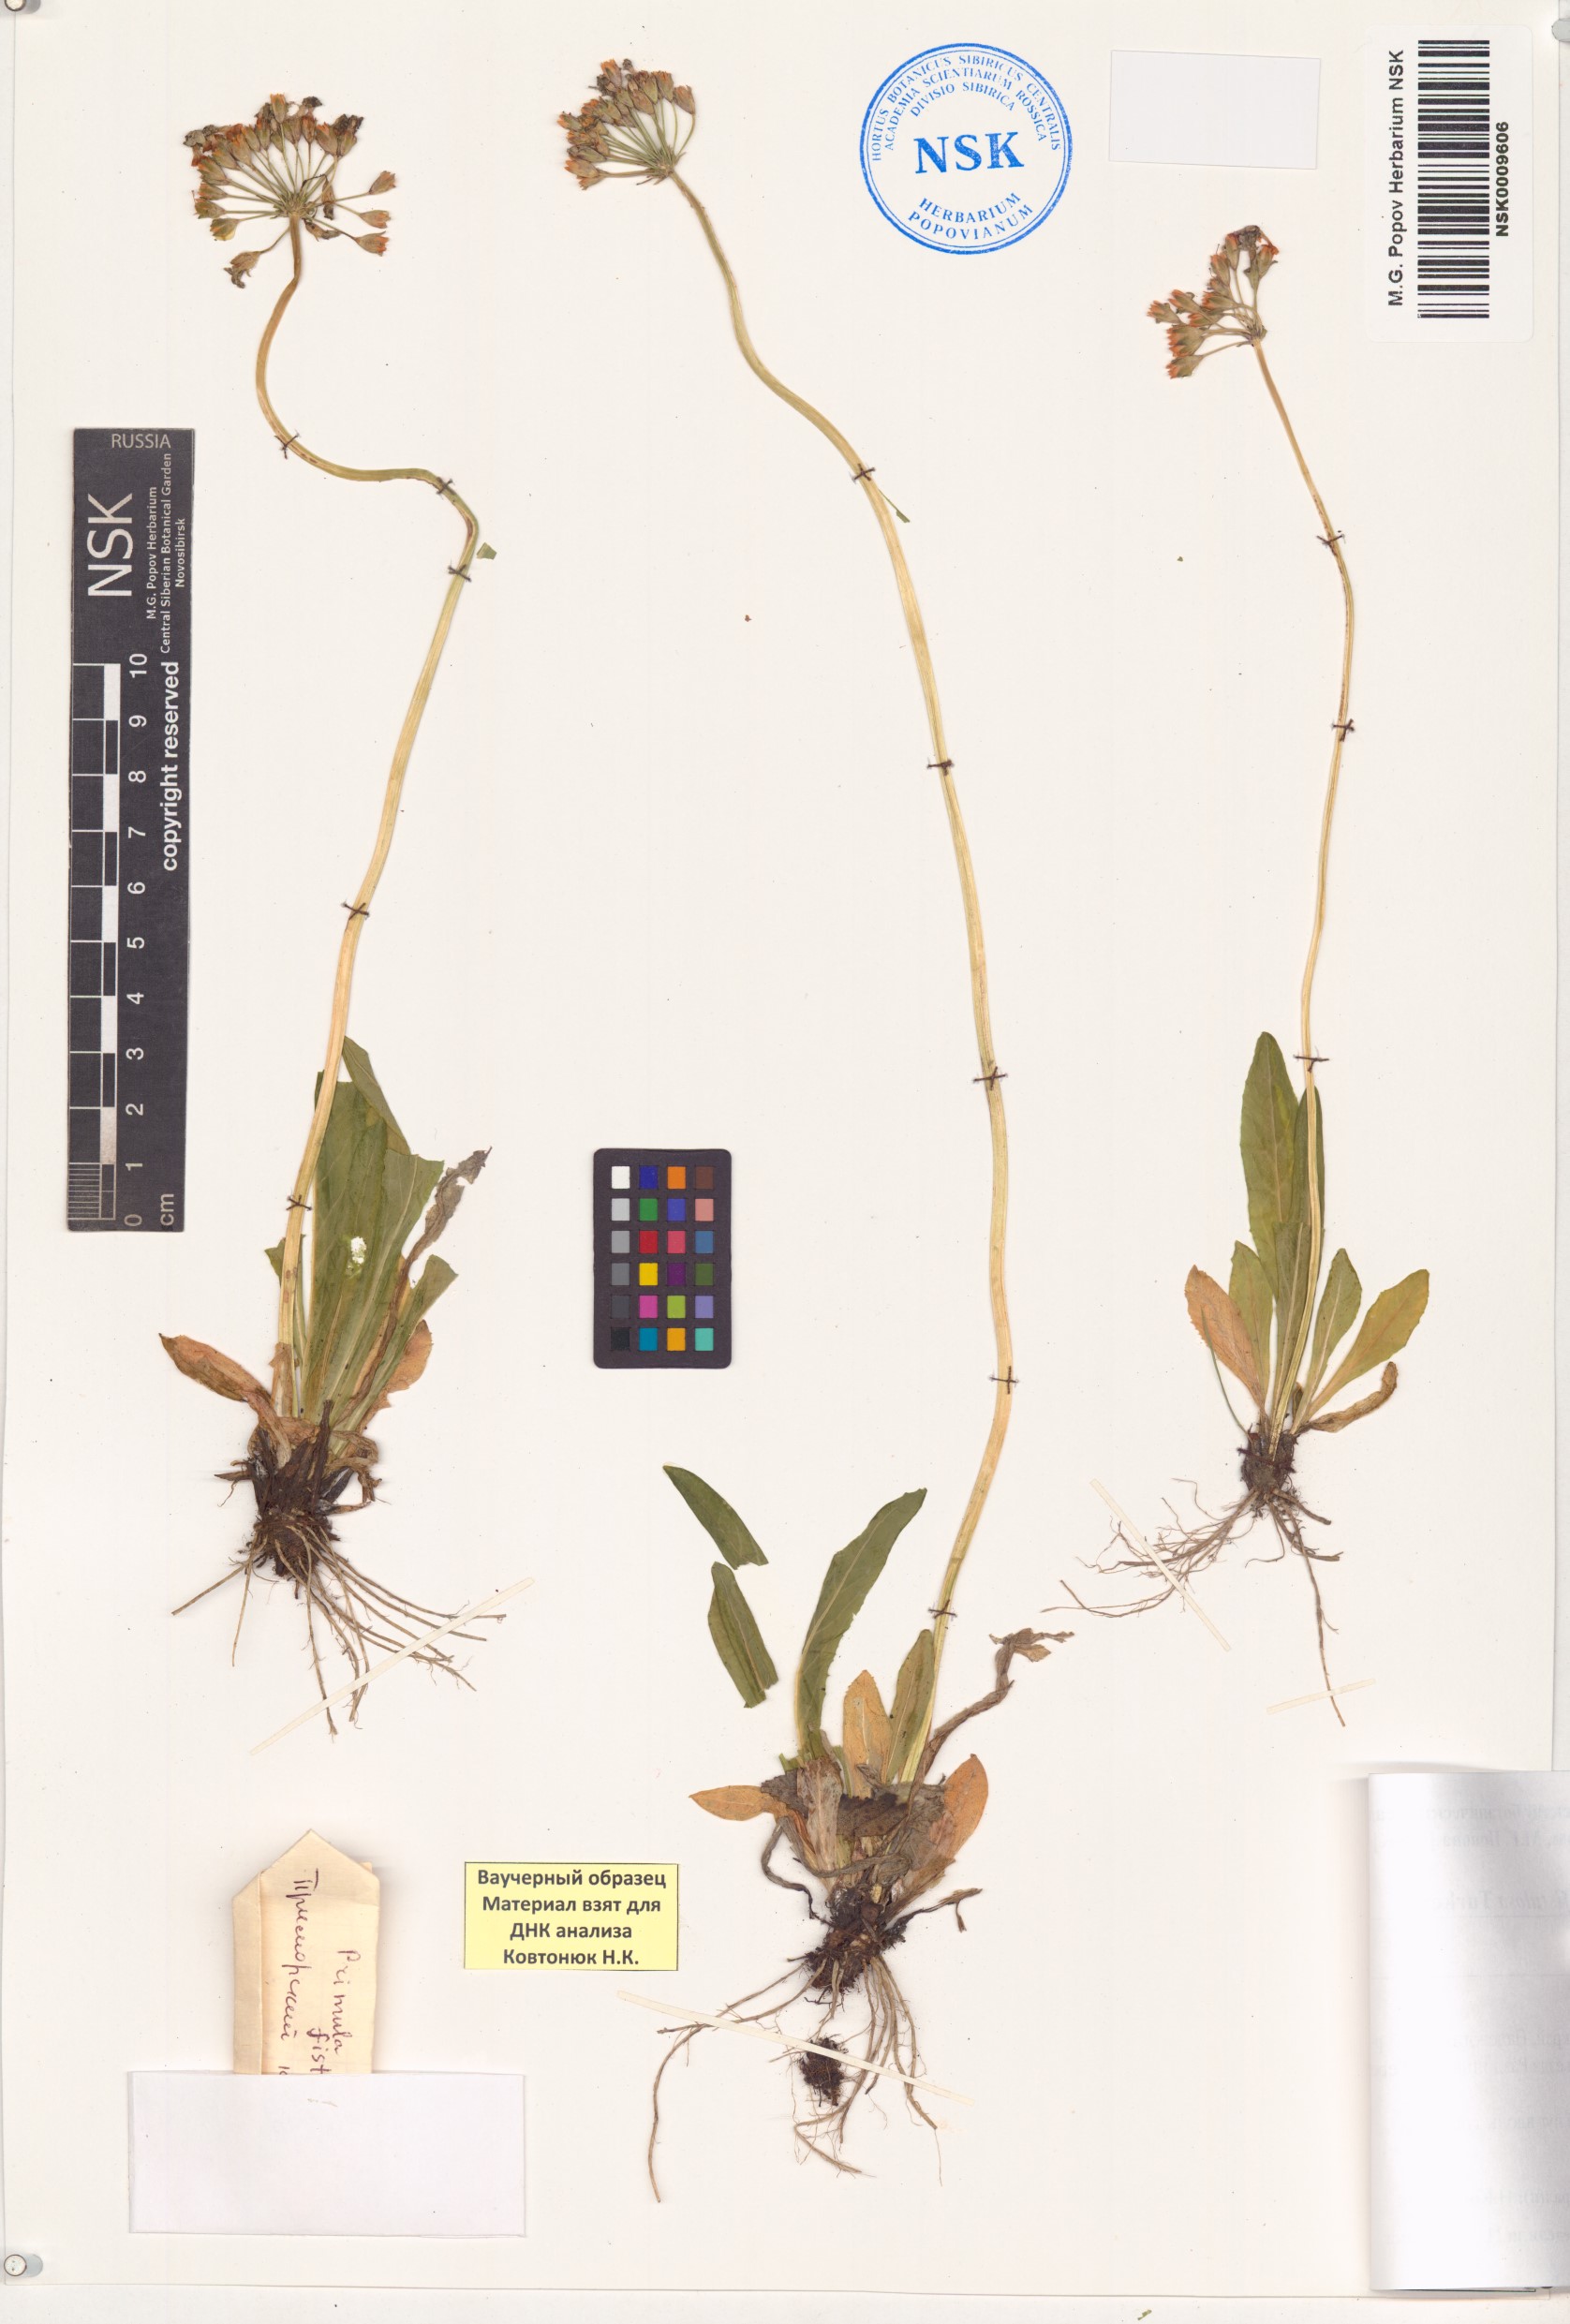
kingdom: Plantae
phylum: Tracheophyta
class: Magnoliopsida
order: Ericales
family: Primulaceae
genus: Primula
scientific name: Primula fistulosa
